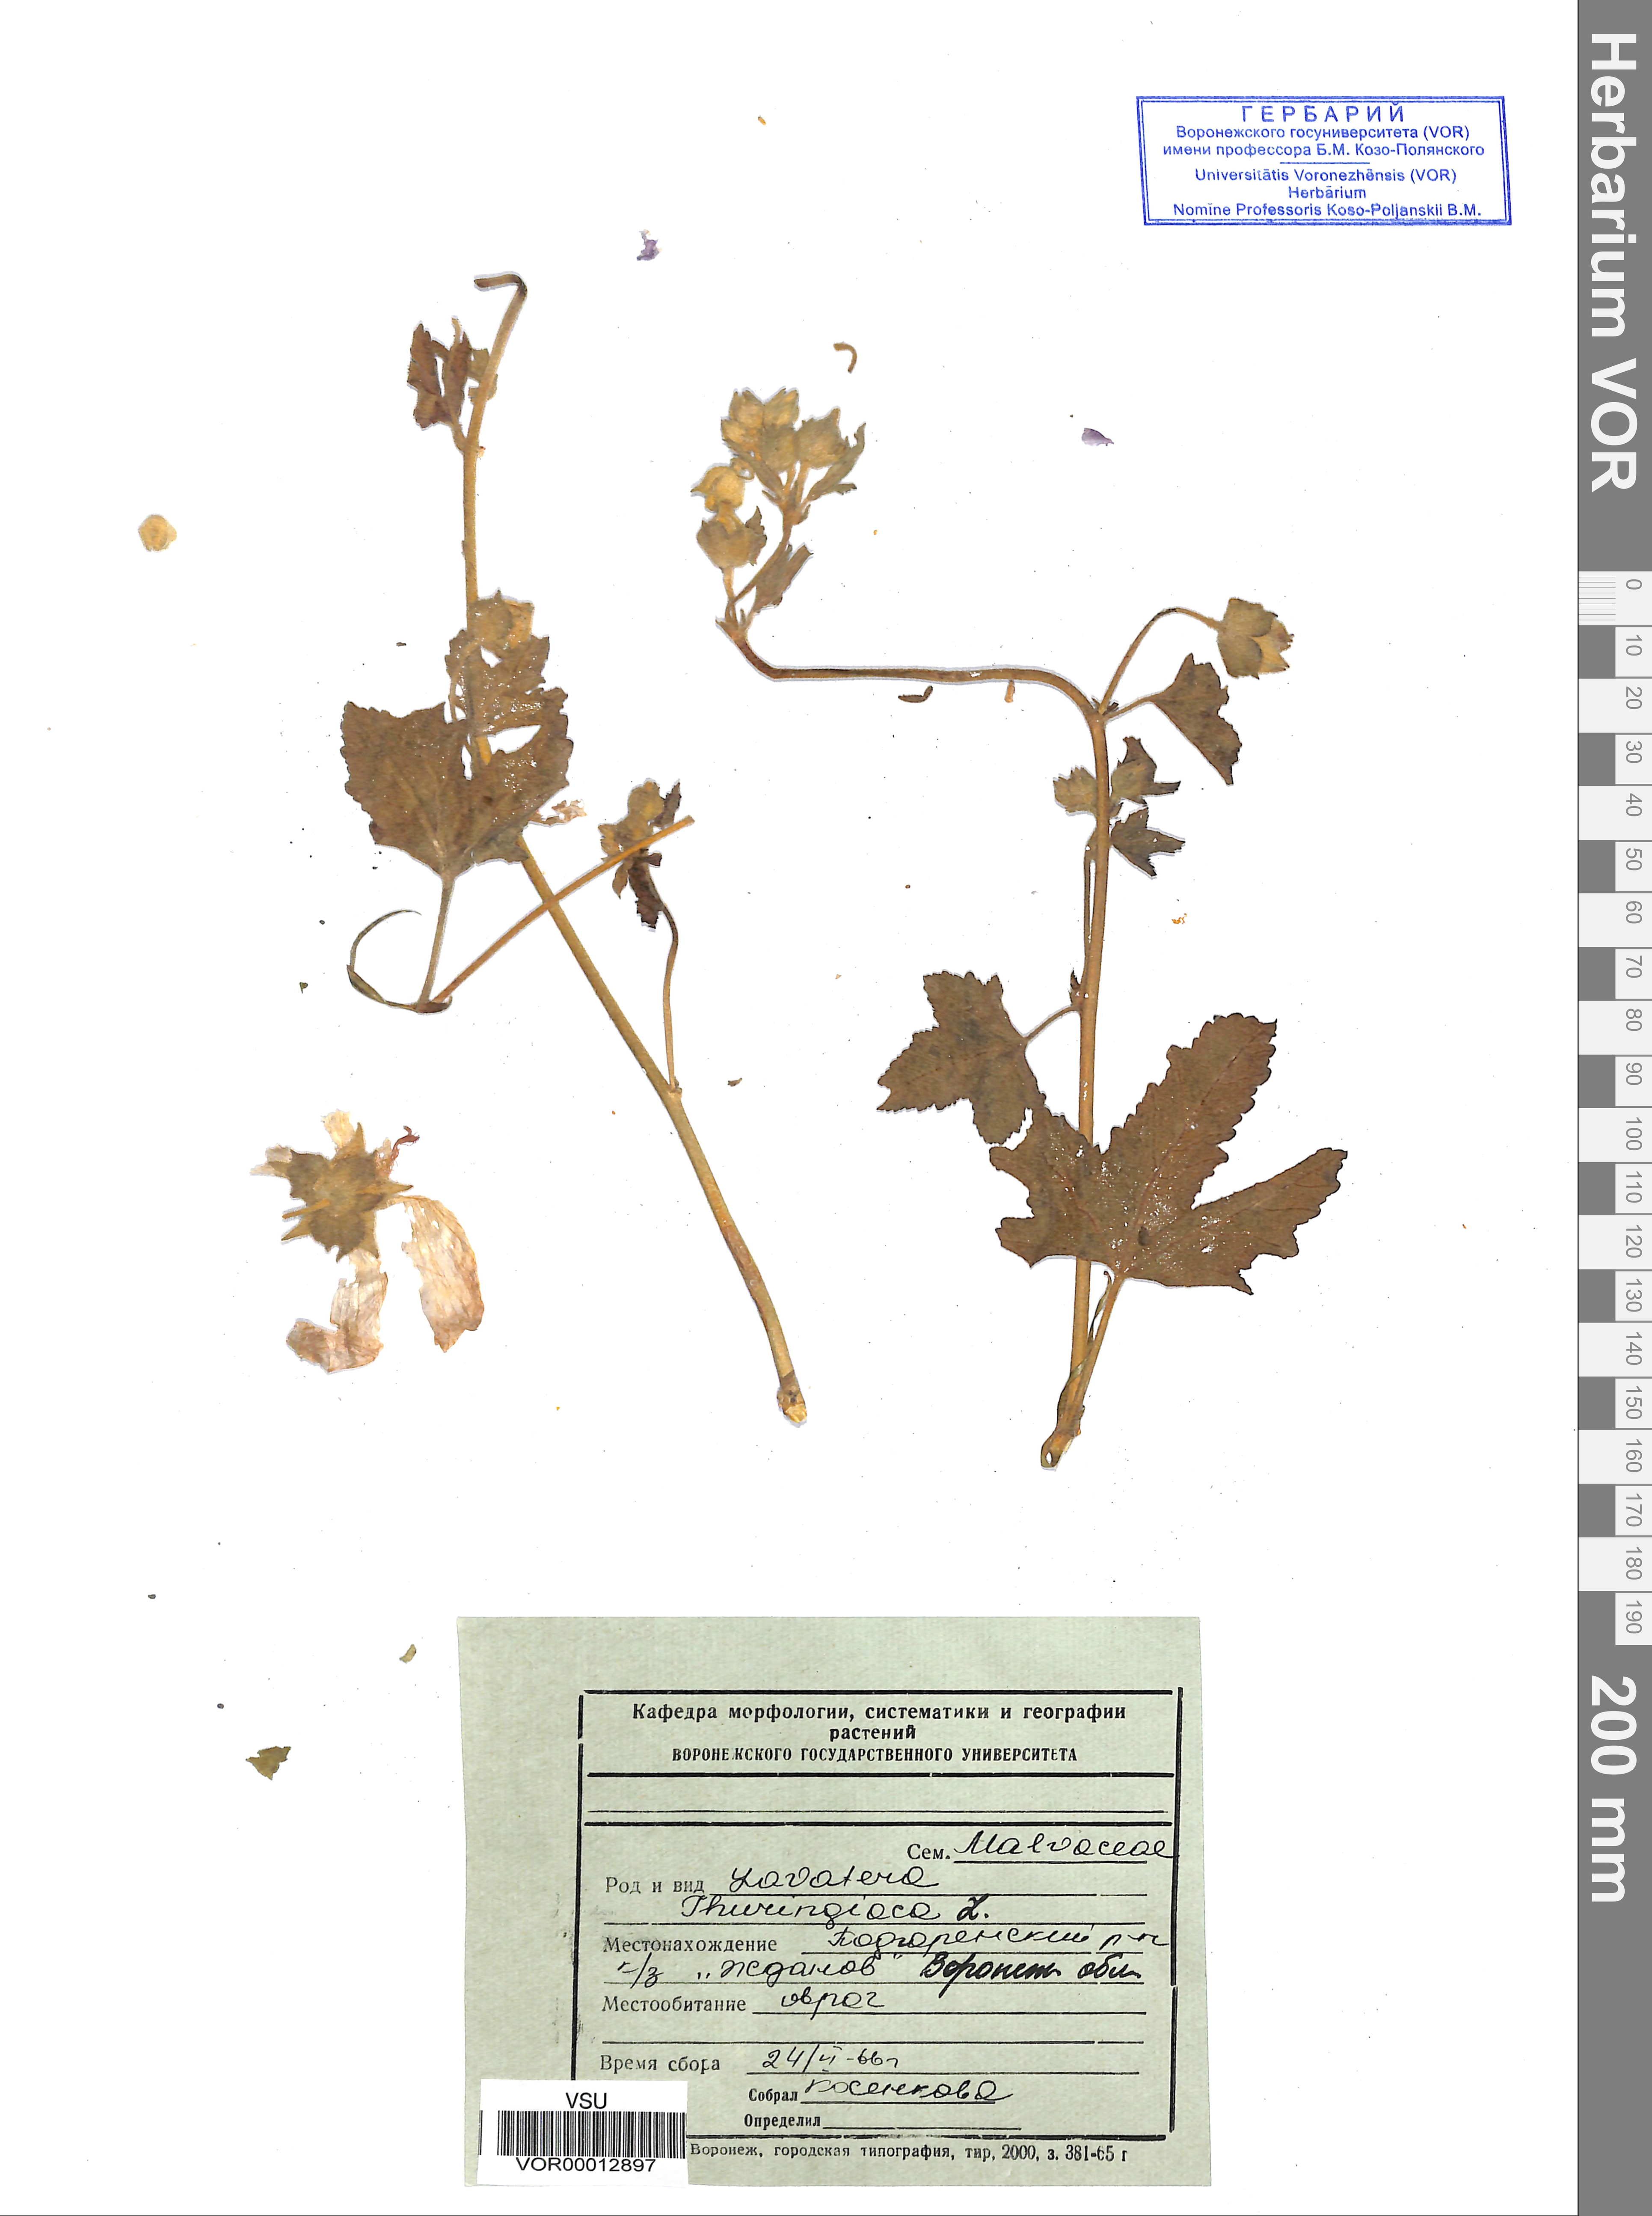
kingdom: Plantae
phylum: Tracheophyta
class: Magnoliopsida
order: Malvales
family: Malvaceae
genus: Malva
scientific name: Malva thuringiaca
